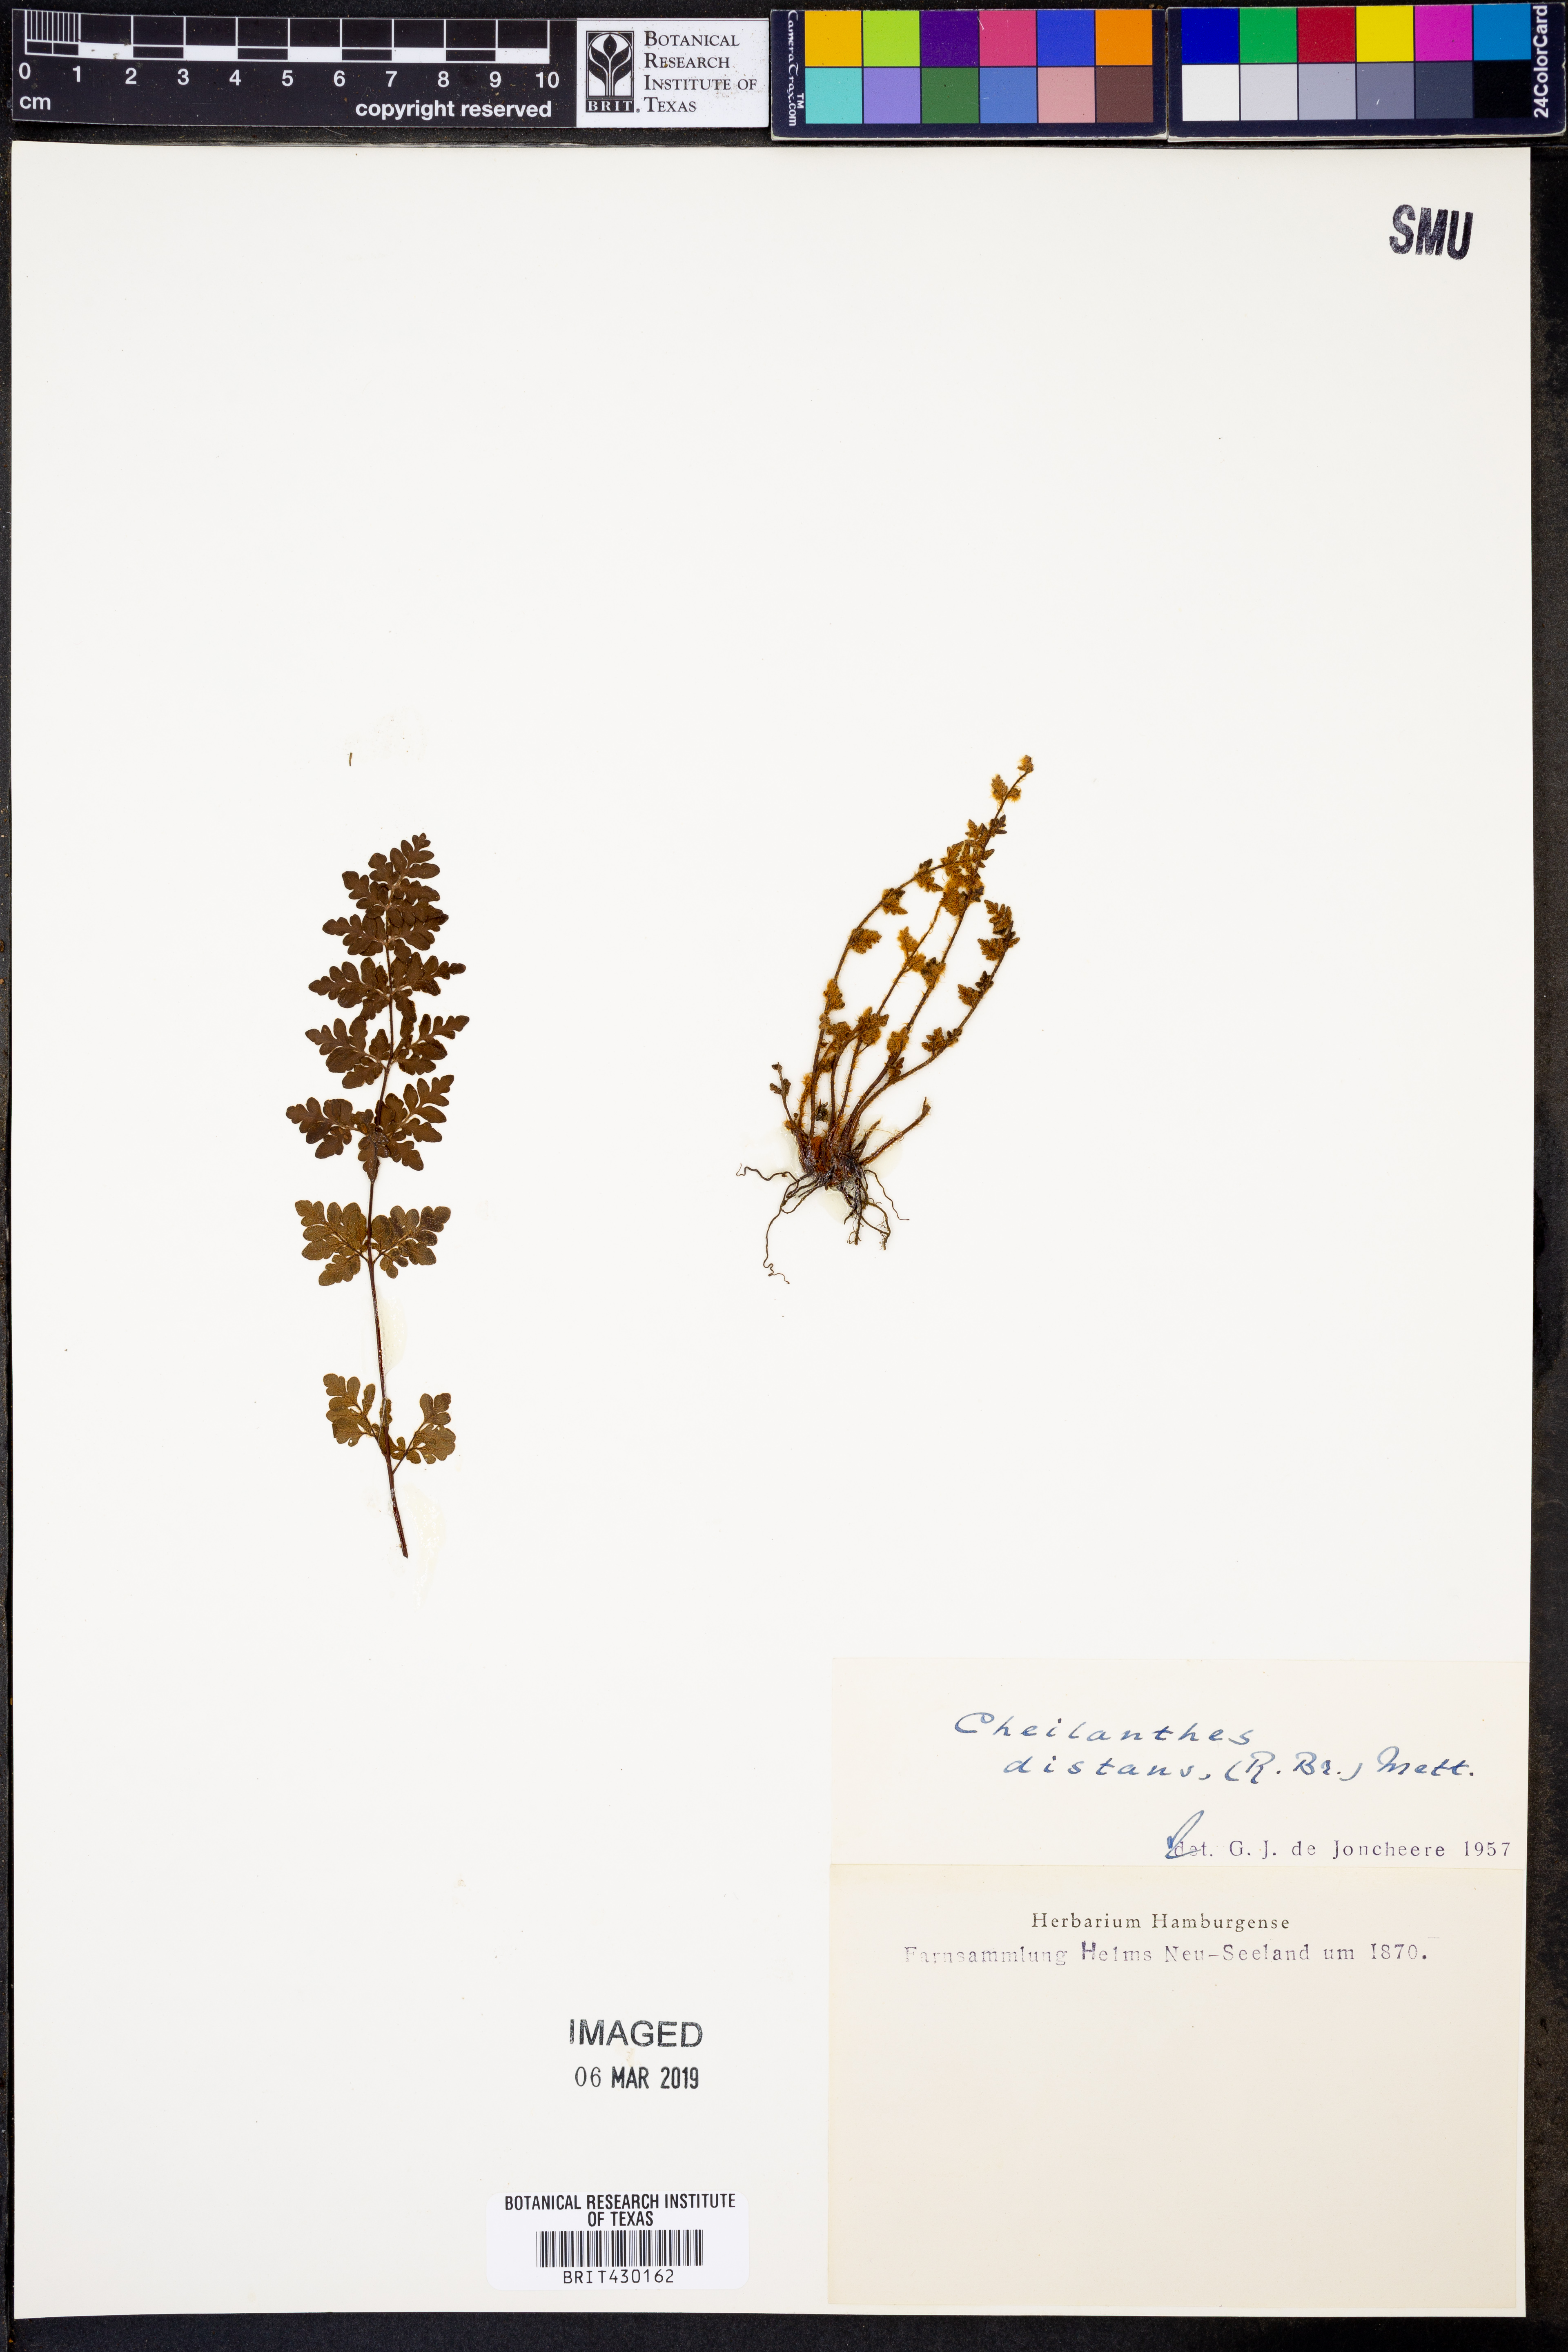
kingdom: Plantae
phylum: Tracheophyta
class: Polypodiopsida
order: Polypodiales
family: Pteridaceae
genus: Cheilanthes
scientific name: Cheilanthes distans
